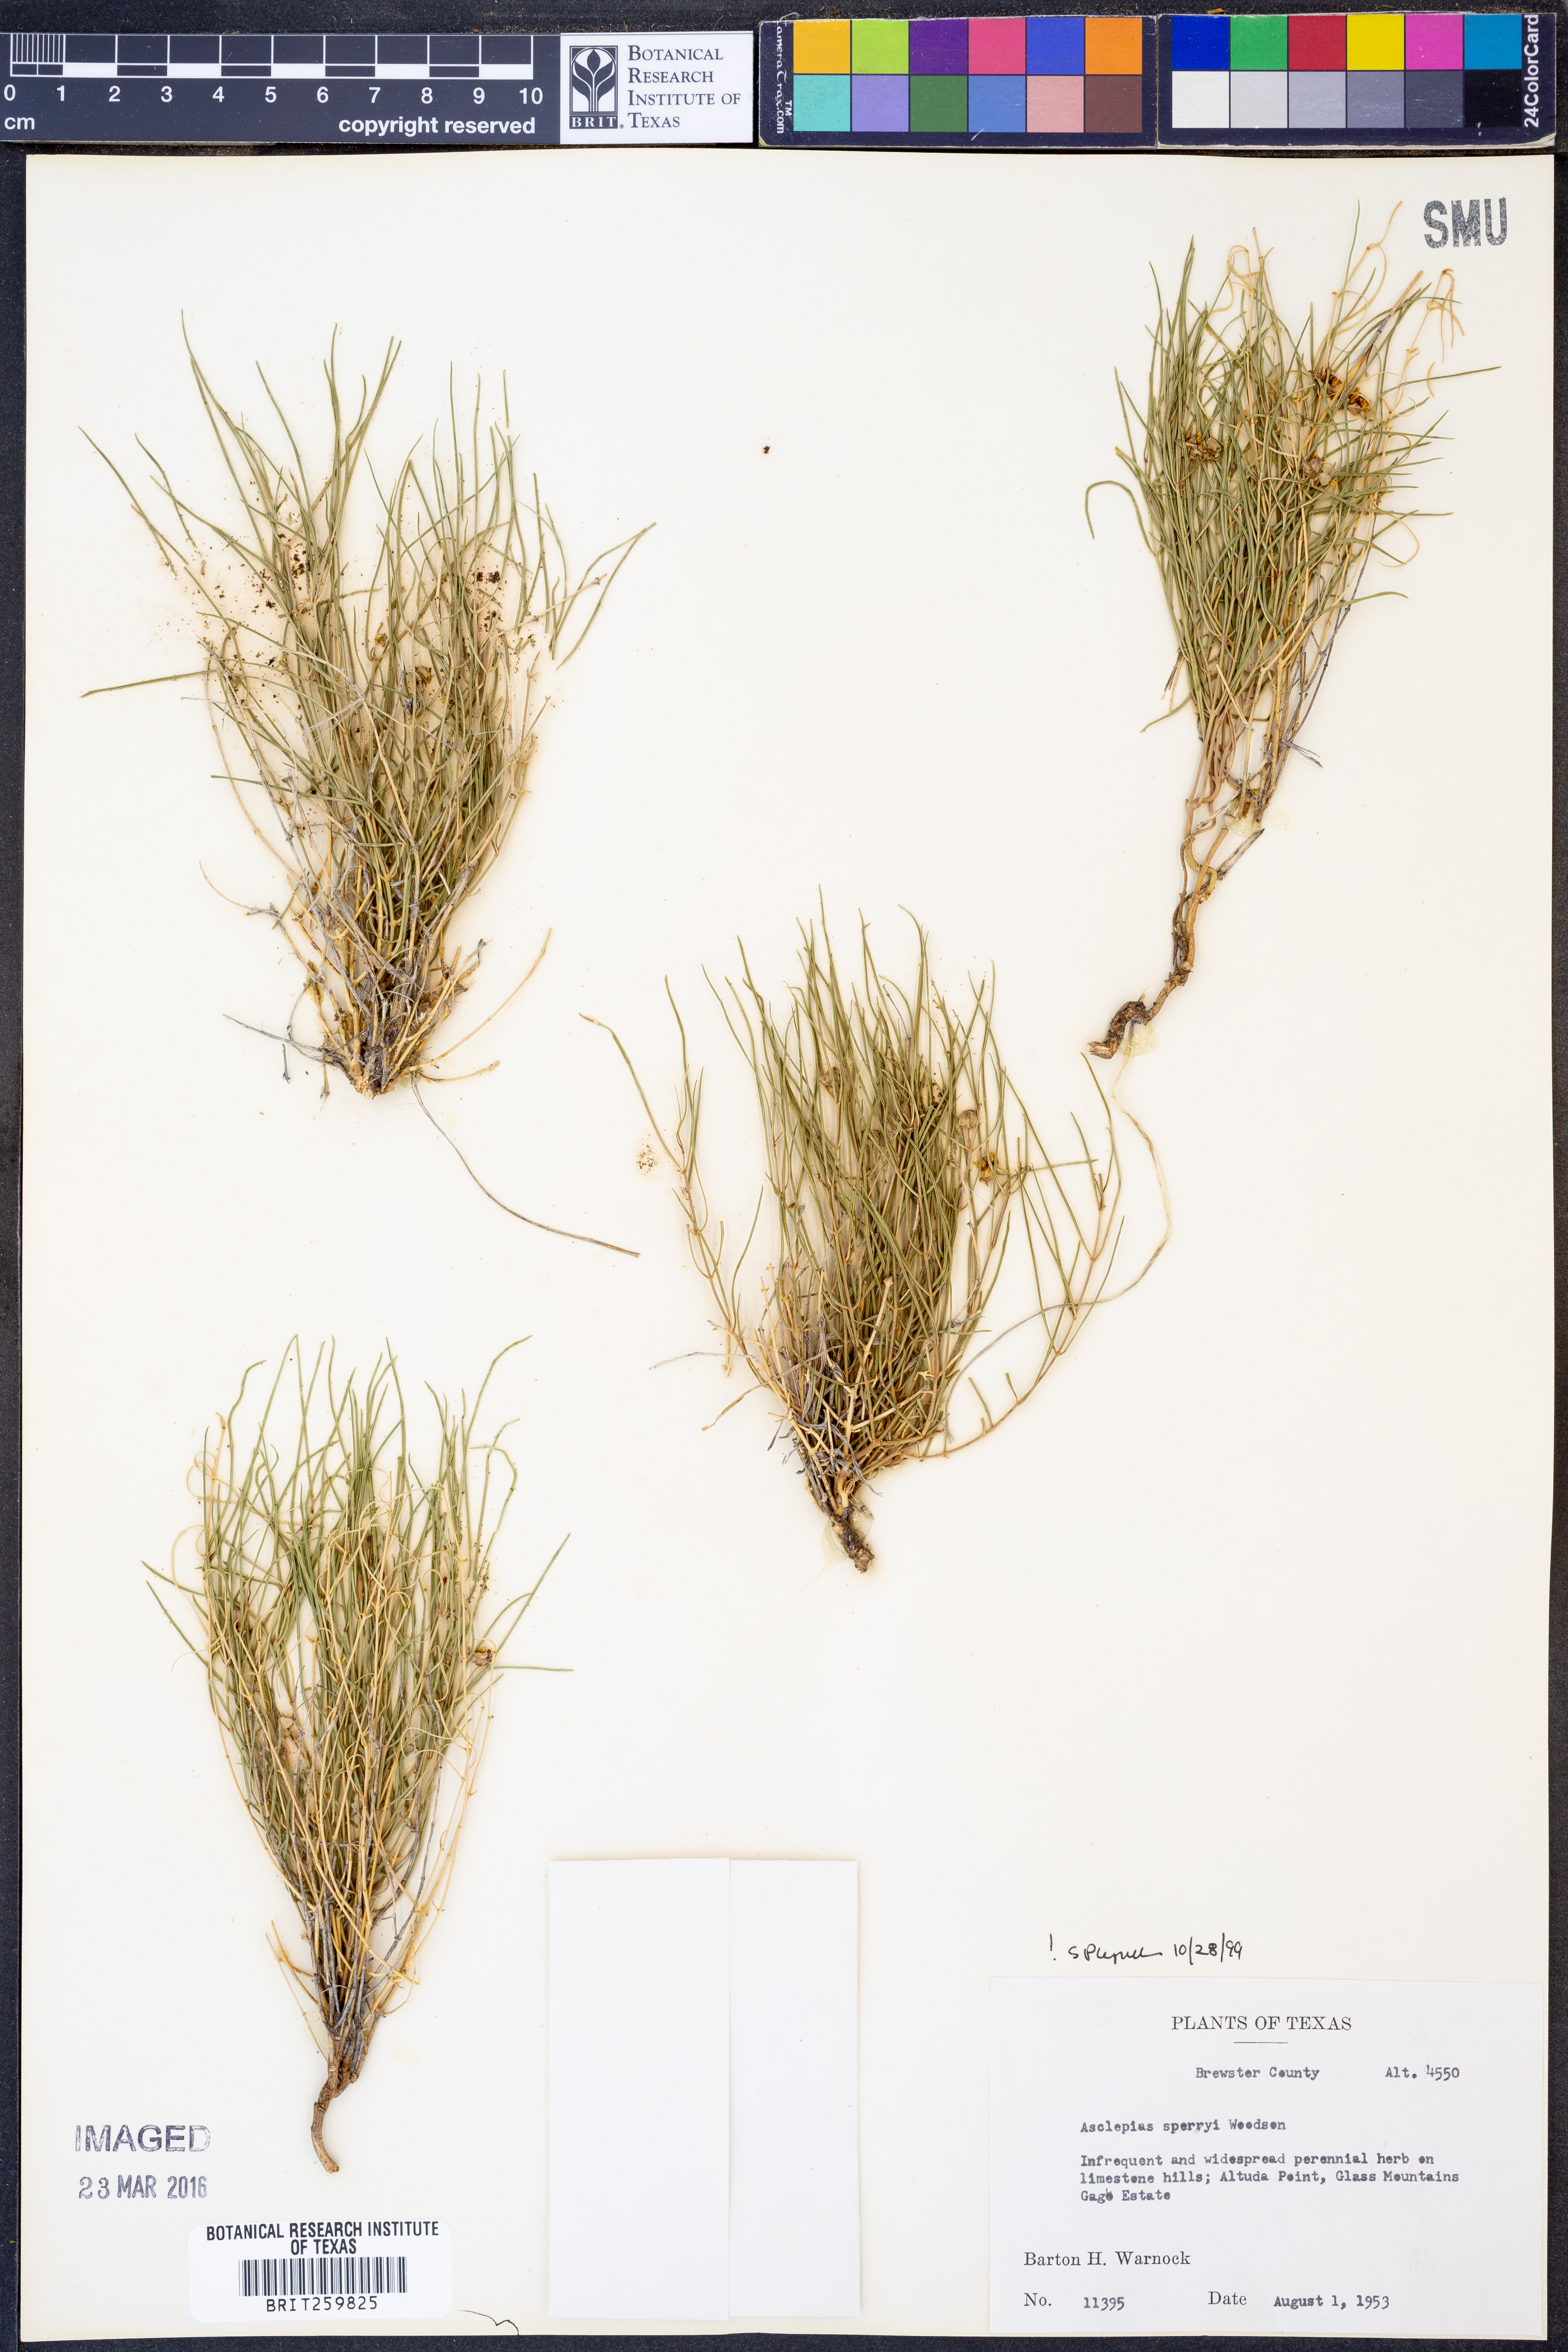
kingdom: Plantae
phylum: Tracheophyta
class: Magnoliopsida
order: Gentianales
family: Apocynaceae
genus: Asclepias
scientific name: Asclepias sperryi
